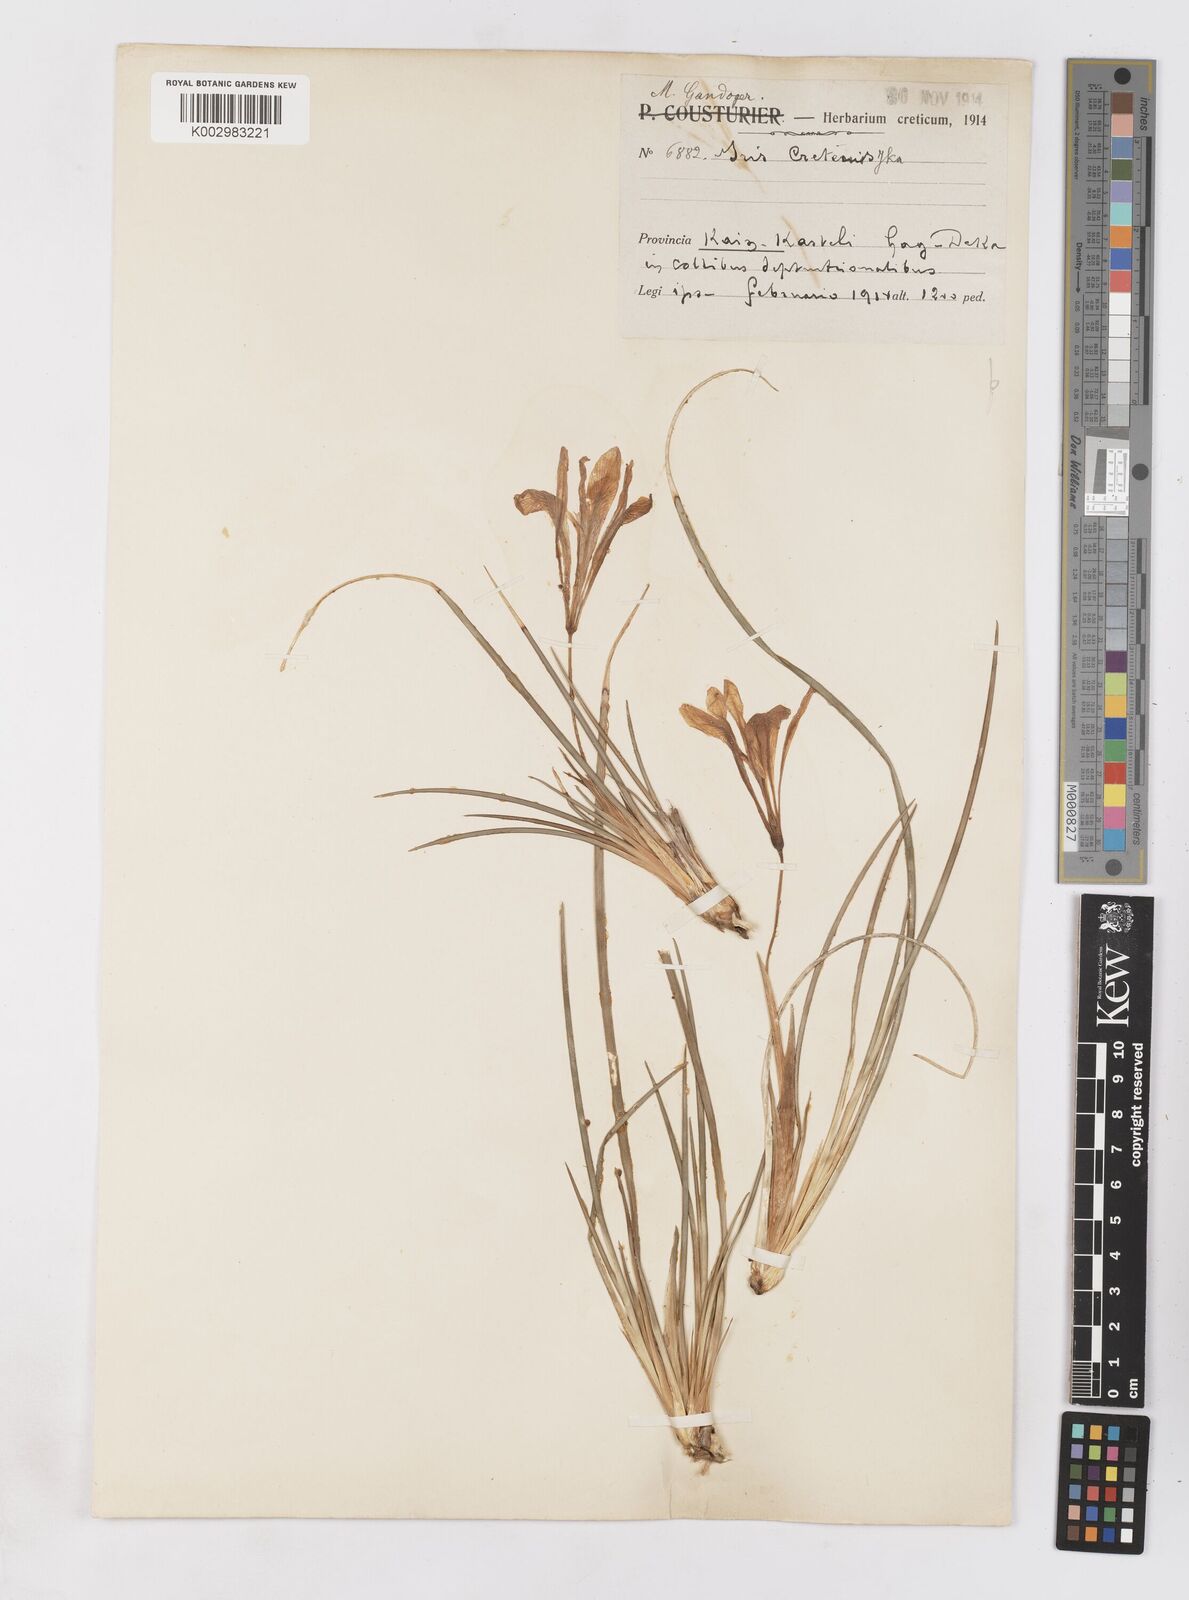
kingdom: Plantae
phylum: Tracheophyta
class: Liliopsida
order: Asparagales
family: Iridaceae
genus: Iris
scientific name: Iris unguicularis
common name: Algerian iris
